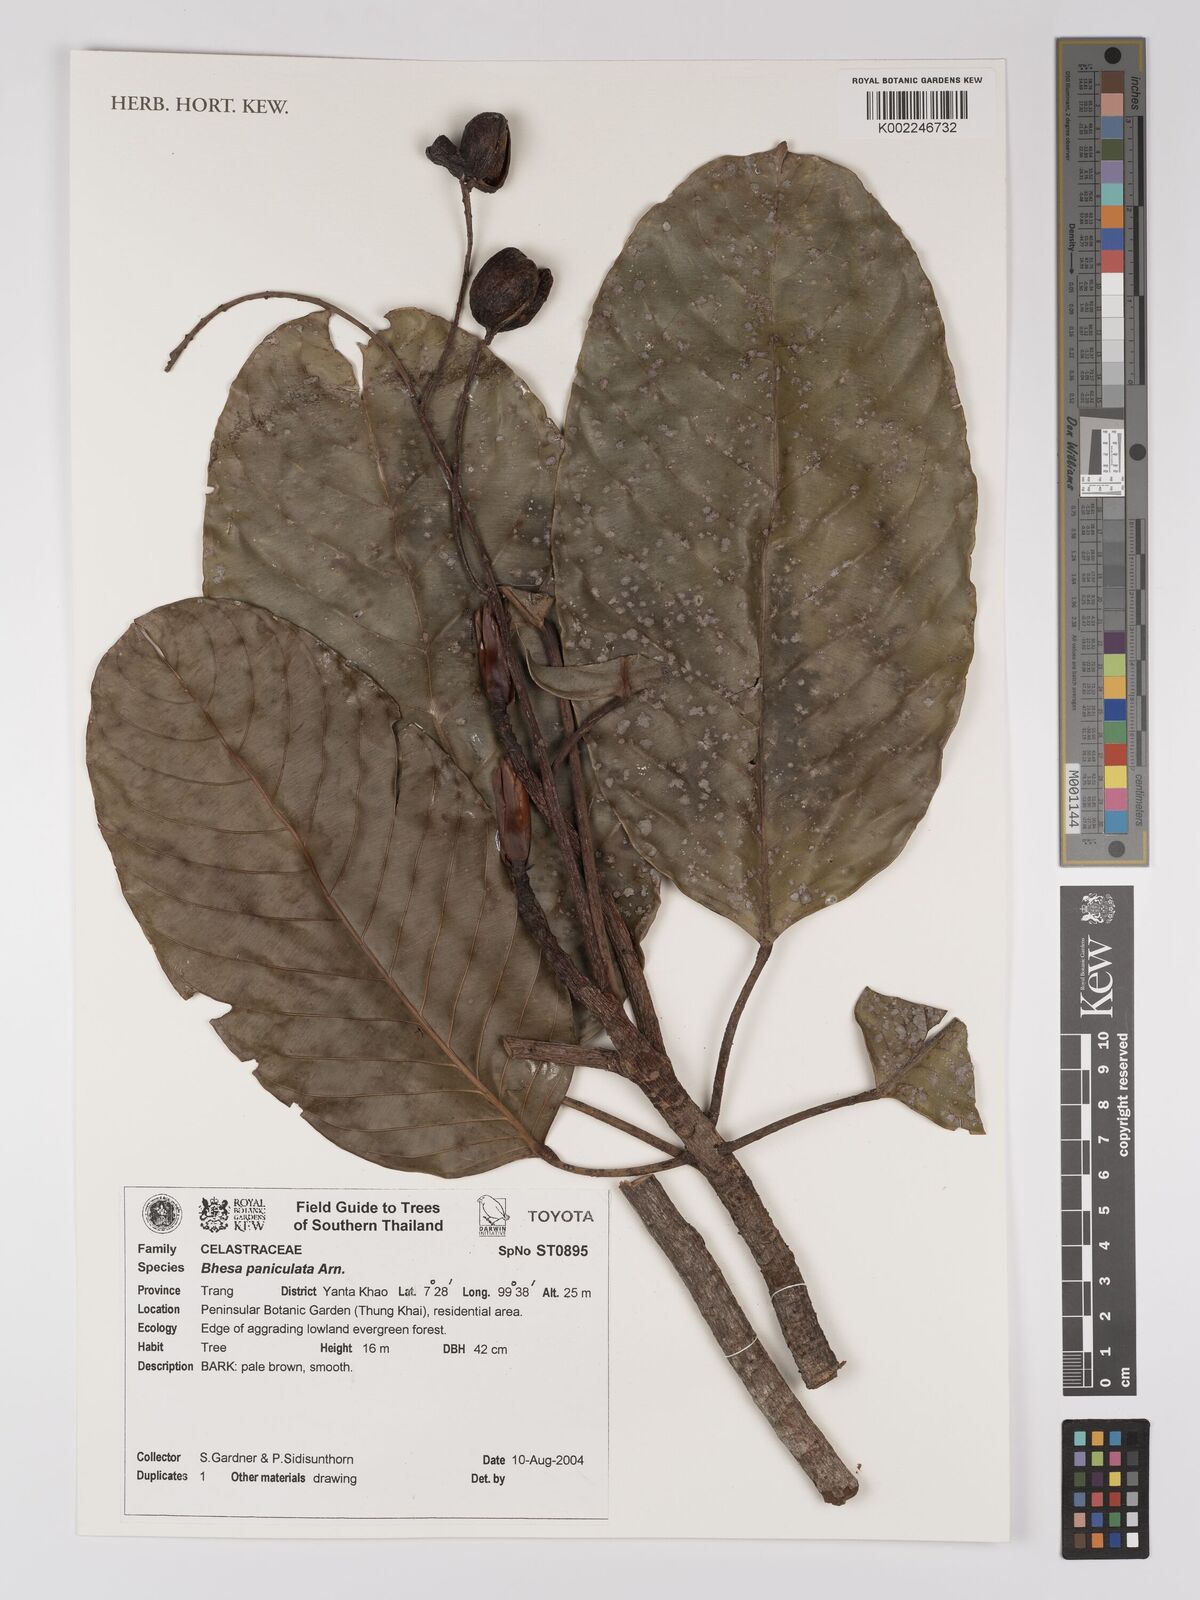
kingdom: Plantae
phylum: Tracheophyta
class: Magnoliopsida
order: Malpighiales
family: Centroplacaceae
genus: Bhesa
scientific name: Bhesa paniculata
